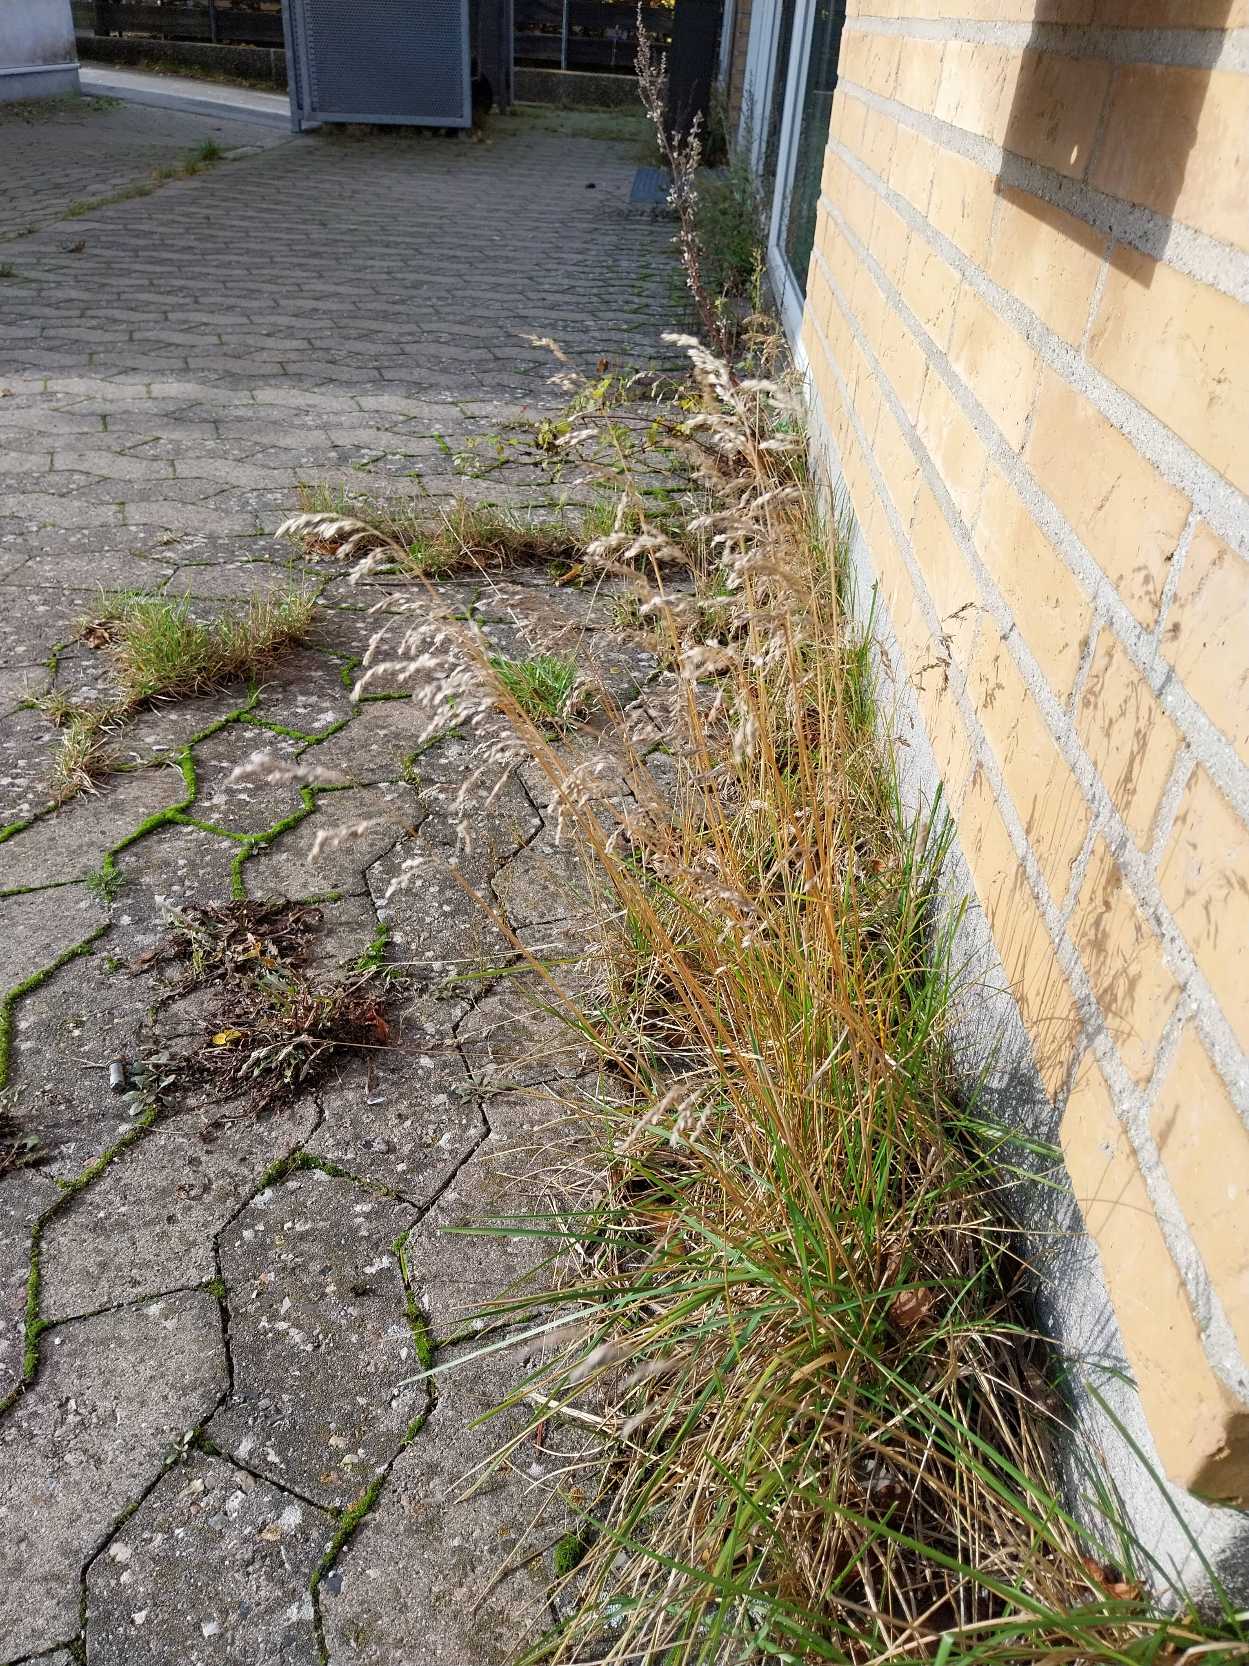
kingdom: Plantae
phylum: Tracheophyta
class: Liliopsida
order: Poales
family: Poaceae
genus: Poa
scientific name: Poa pratensis
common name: Eng-rapgræs
